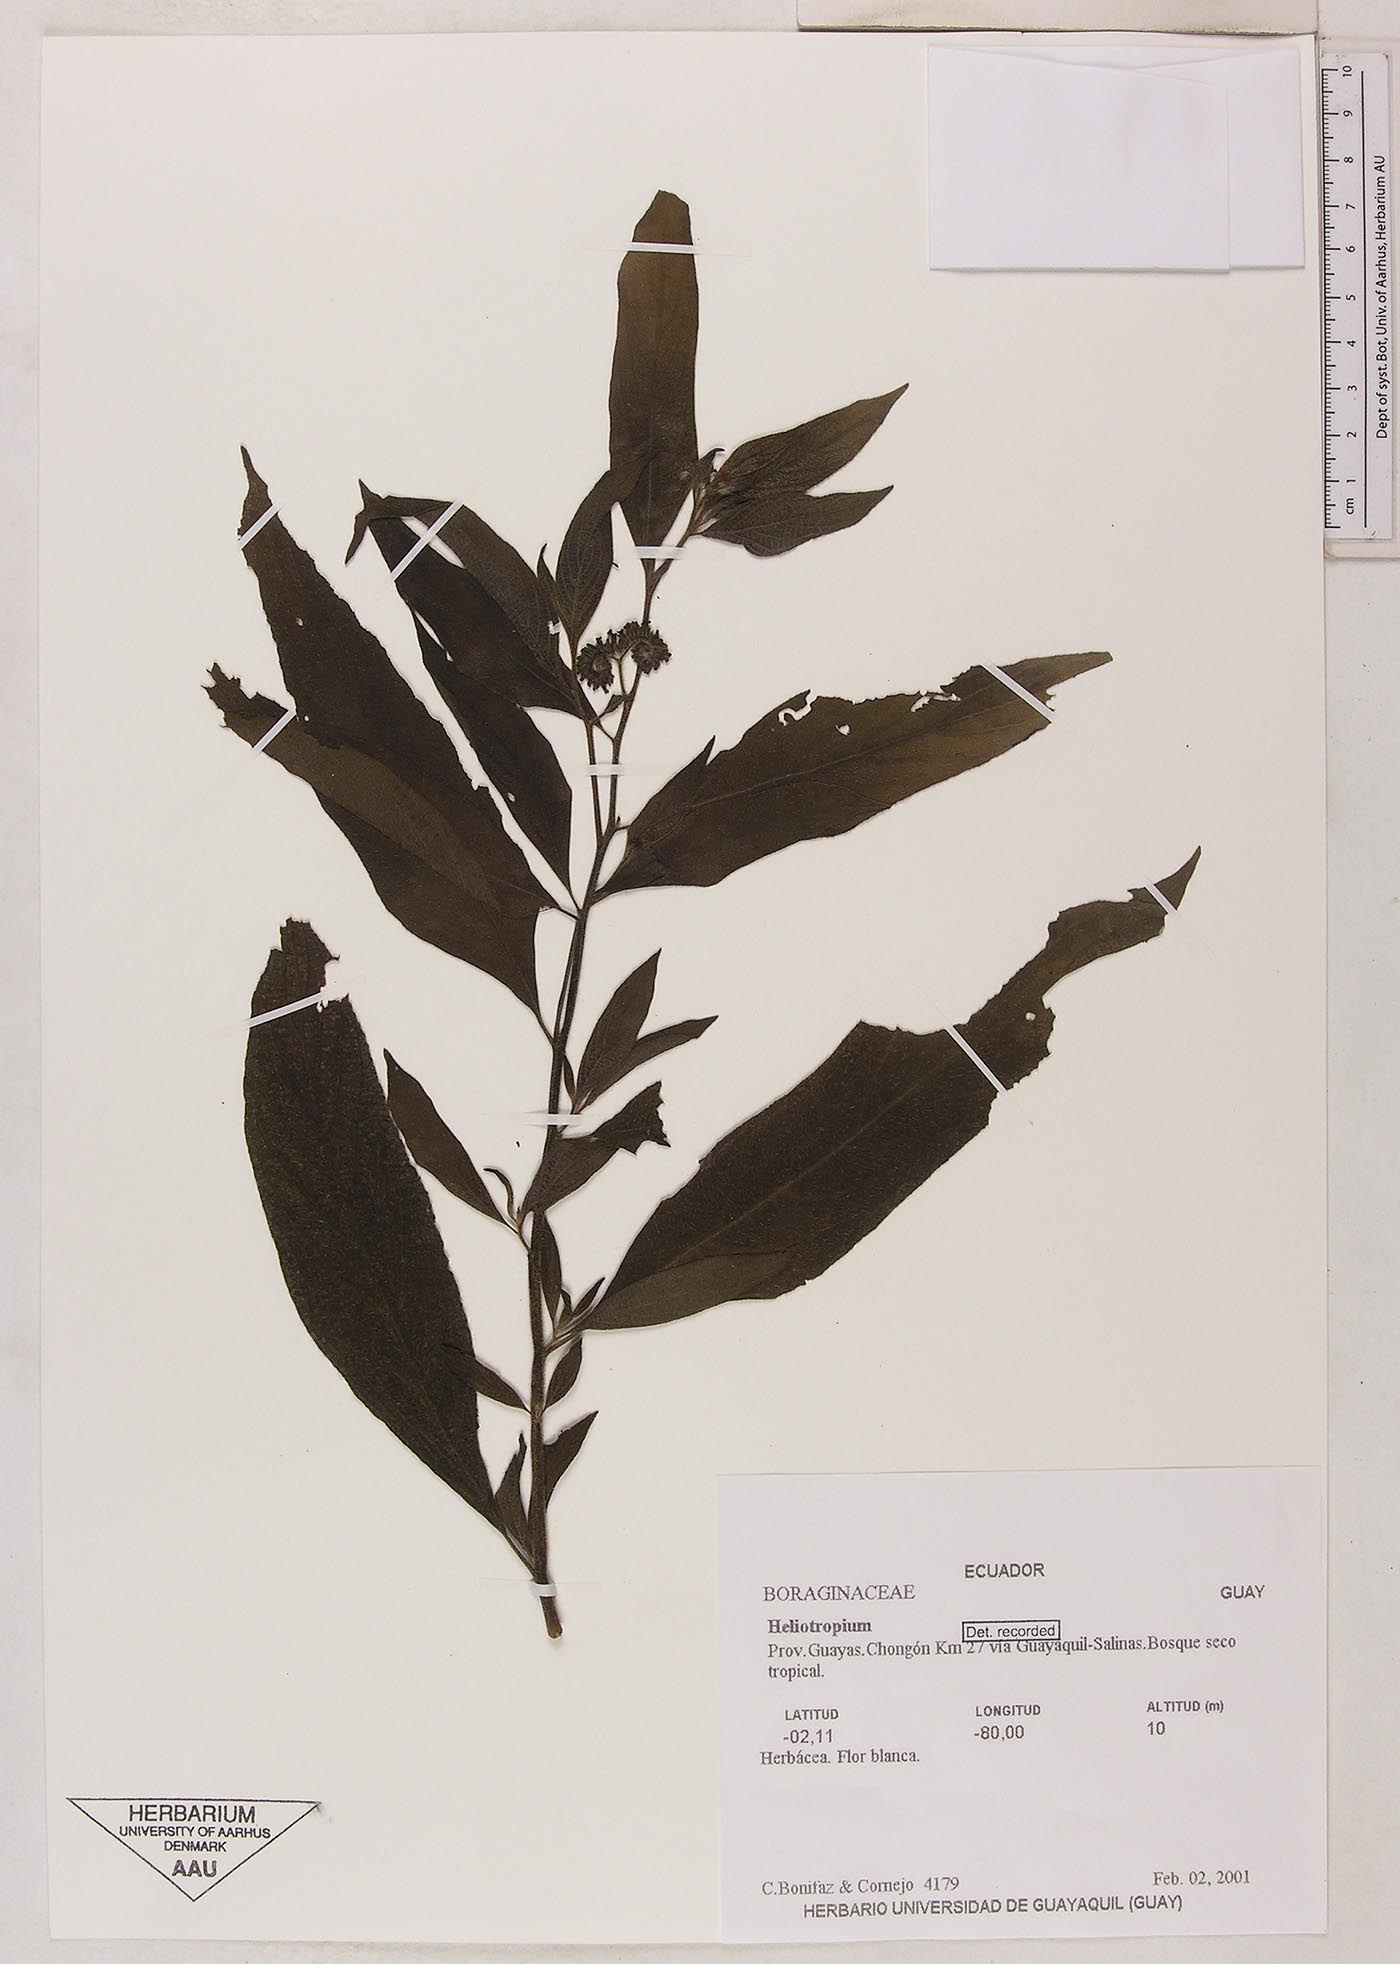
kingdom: Plantae
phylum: Tracheophyta
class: Magnoliopsida
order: Boraginales
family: Heliotropiaceae
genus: Heliotropium
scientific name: Heliotropium rufipilum
